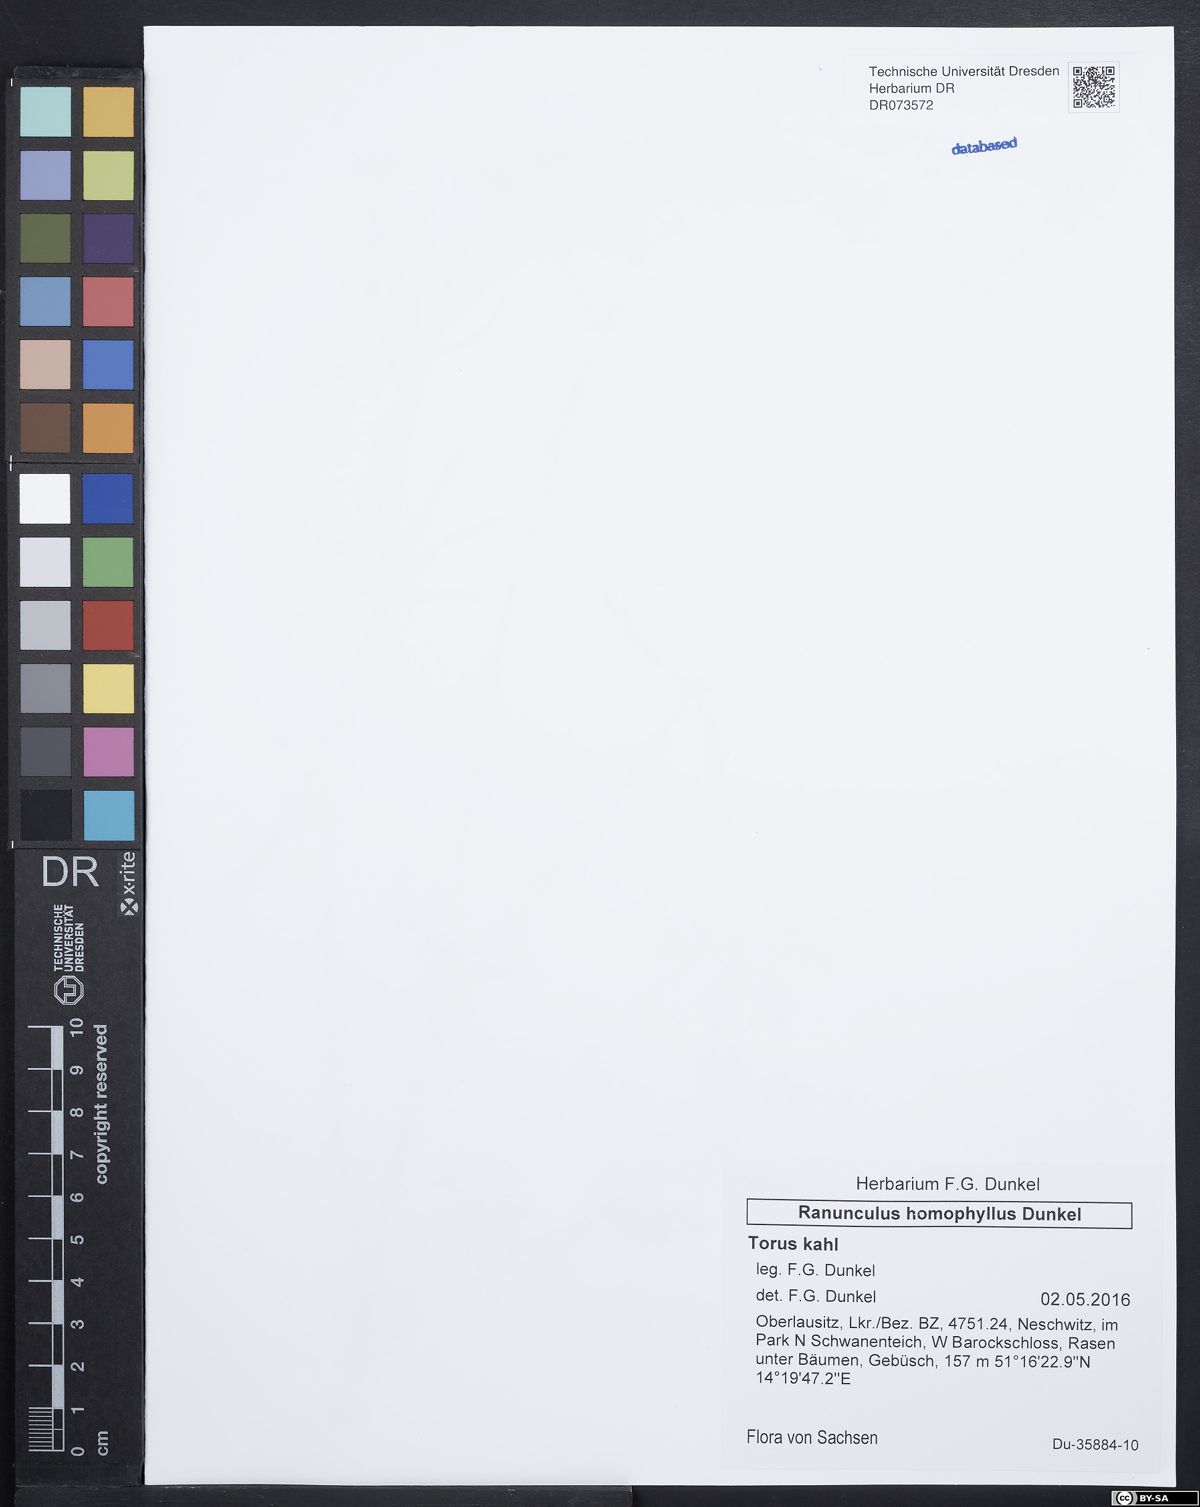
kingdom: Plantae
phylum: Tracheophyta
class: Magnoliopsida
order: Ranunculales
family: Ranunculaceae
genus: Ranunculus
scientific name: Ranunculus homophyllus
